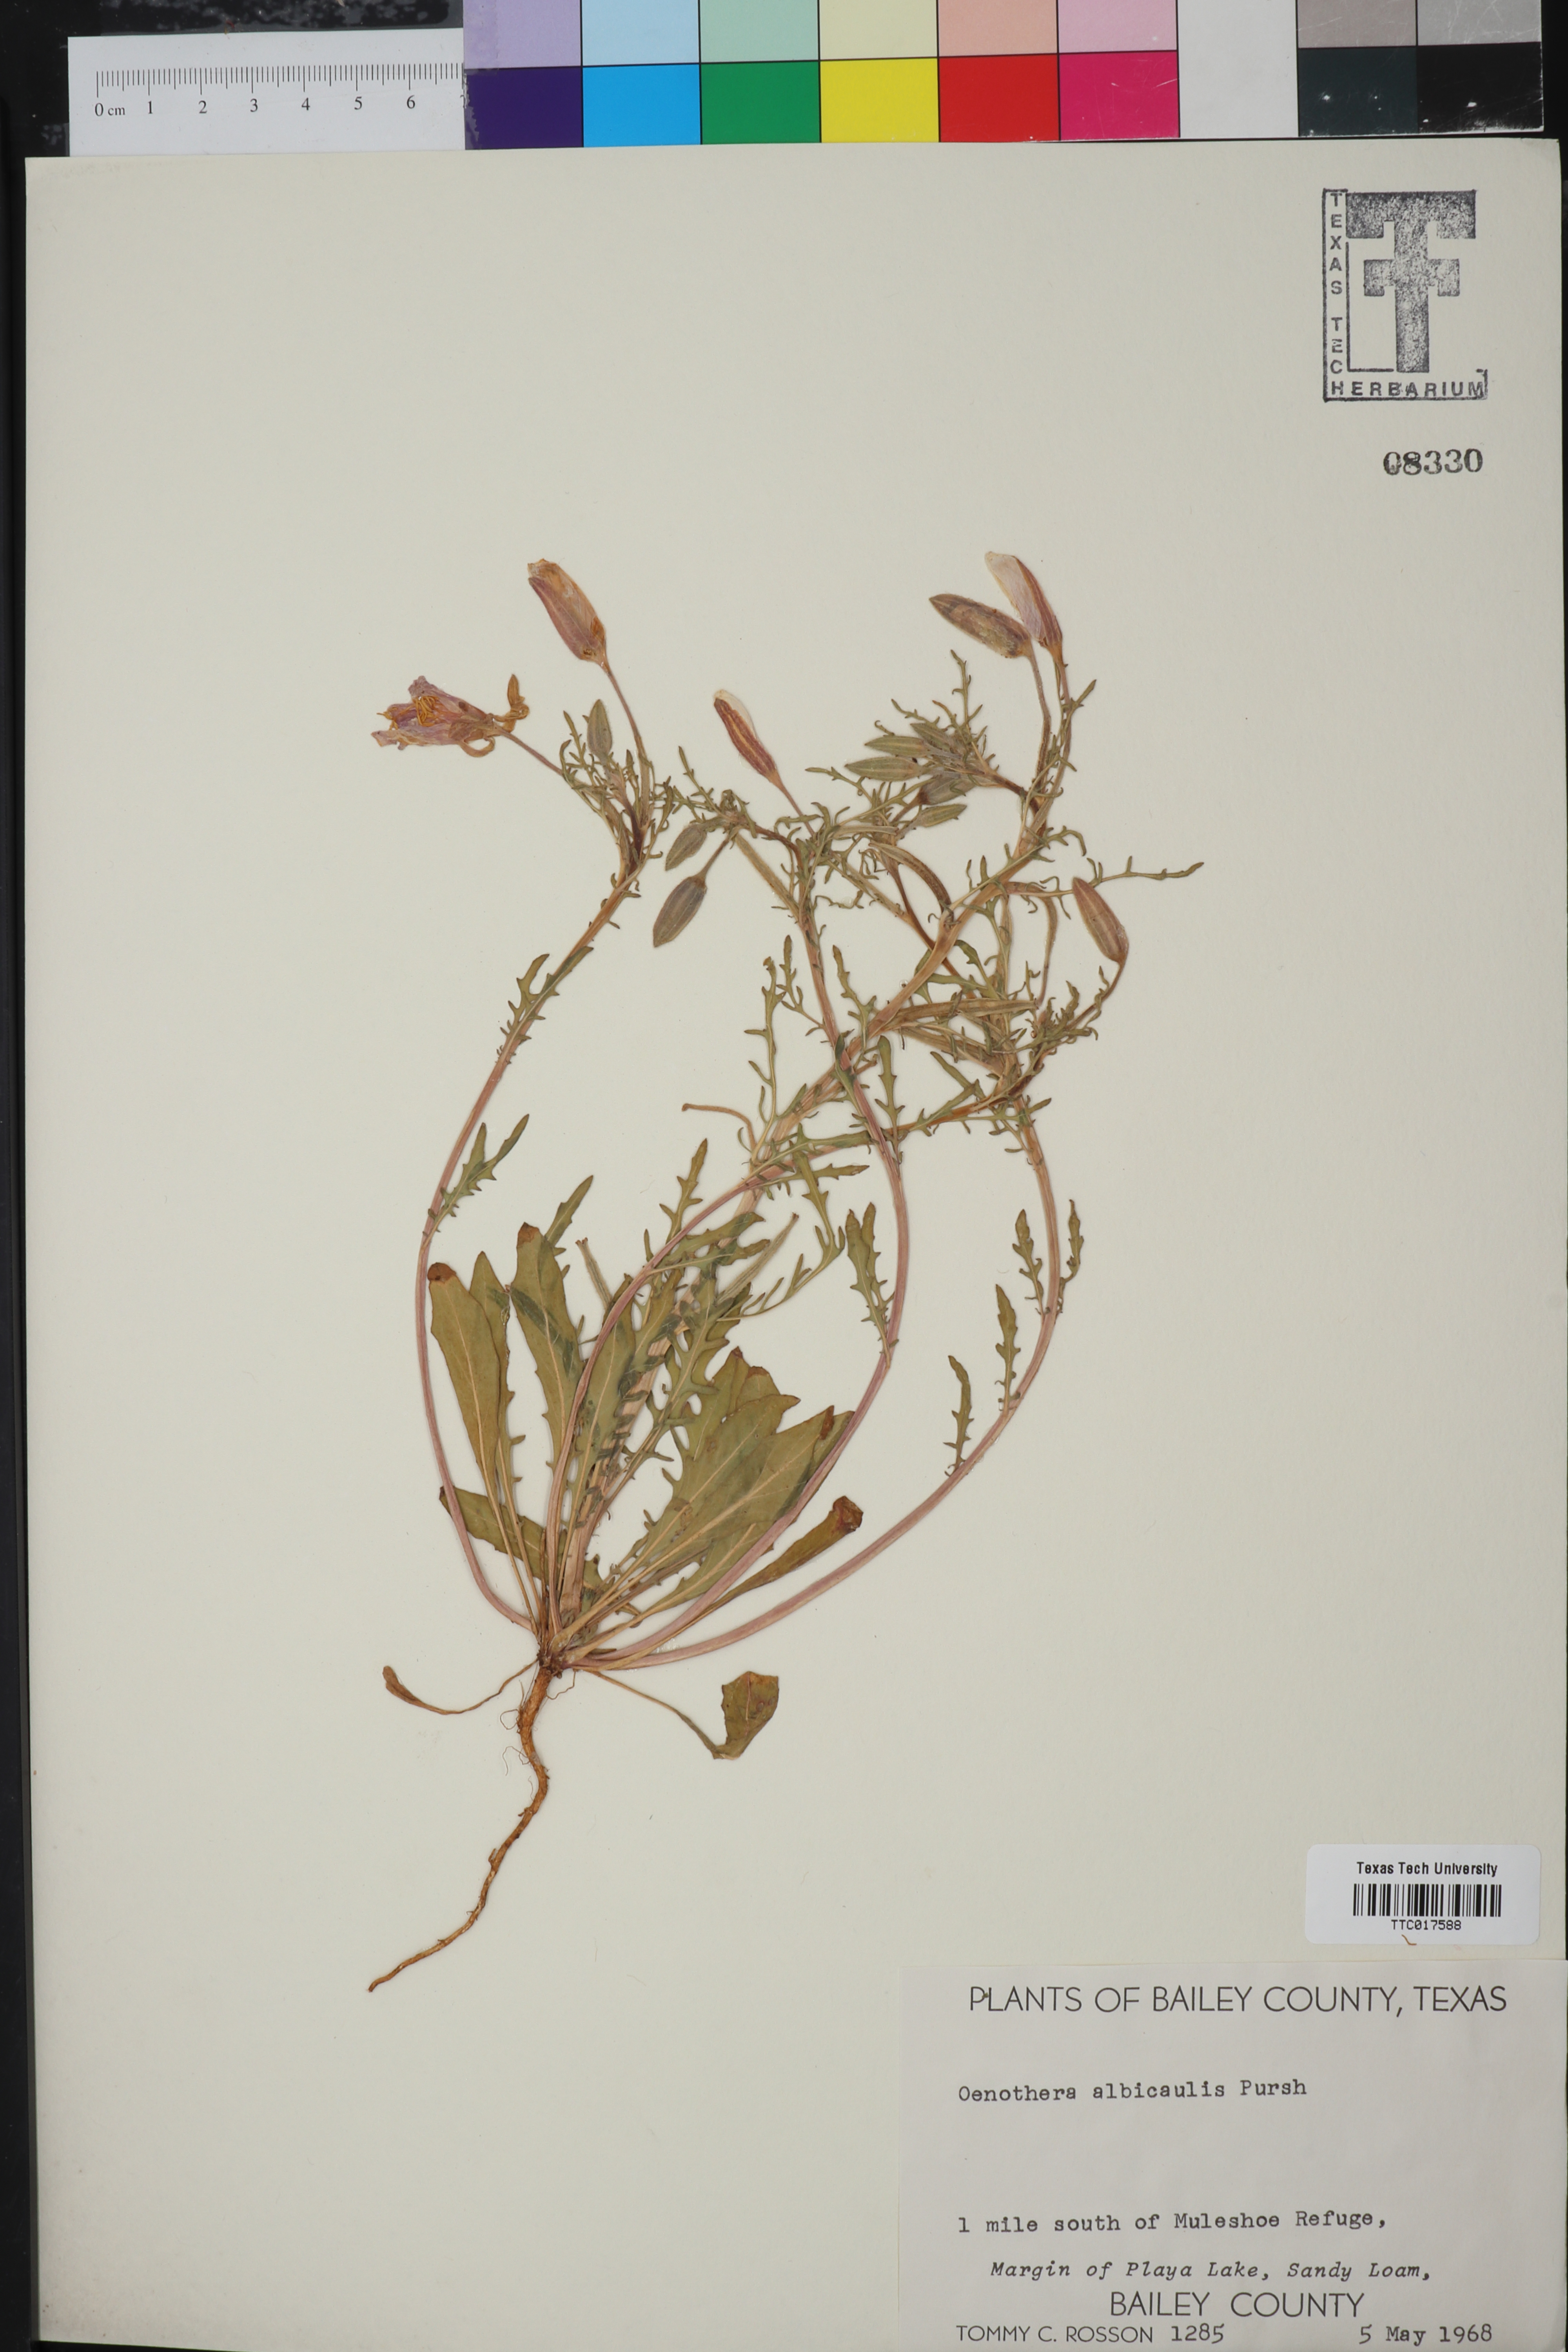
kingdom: Plantae
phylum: Tracheophyta
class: Magnoliopsida
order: Myrtales
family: Onagraceae
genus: Oenothera
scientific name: Oenothera albicaulis
